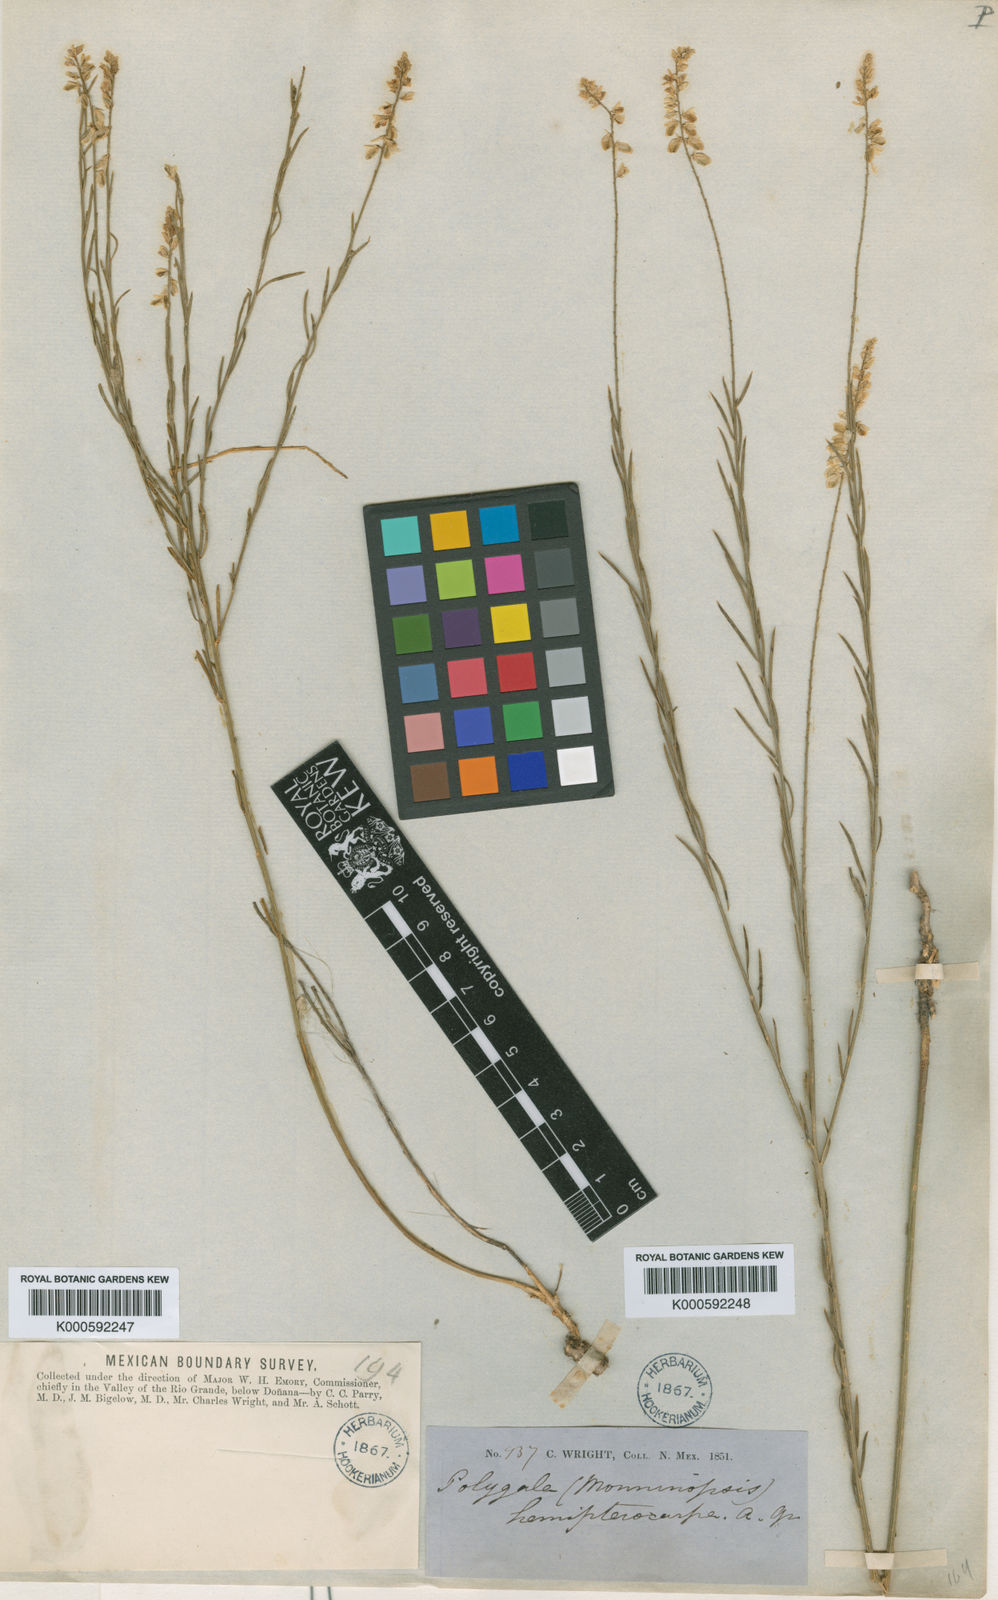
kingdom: Plantae
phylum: Tracheophyta
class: Magnoliopsida
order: Fabales
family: Polygalaceae
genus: Polygala
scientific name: Polygala hemipterocarpa
